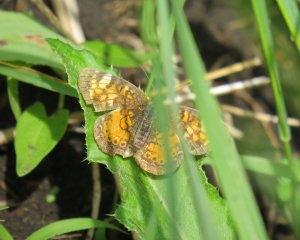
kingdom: Animalia
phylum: Arthropoda
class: Insecta
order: Lepidoptera
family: Nymphalidae
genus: Phyciodes
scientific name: Phyciodes tharos
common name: Northern Crescent
